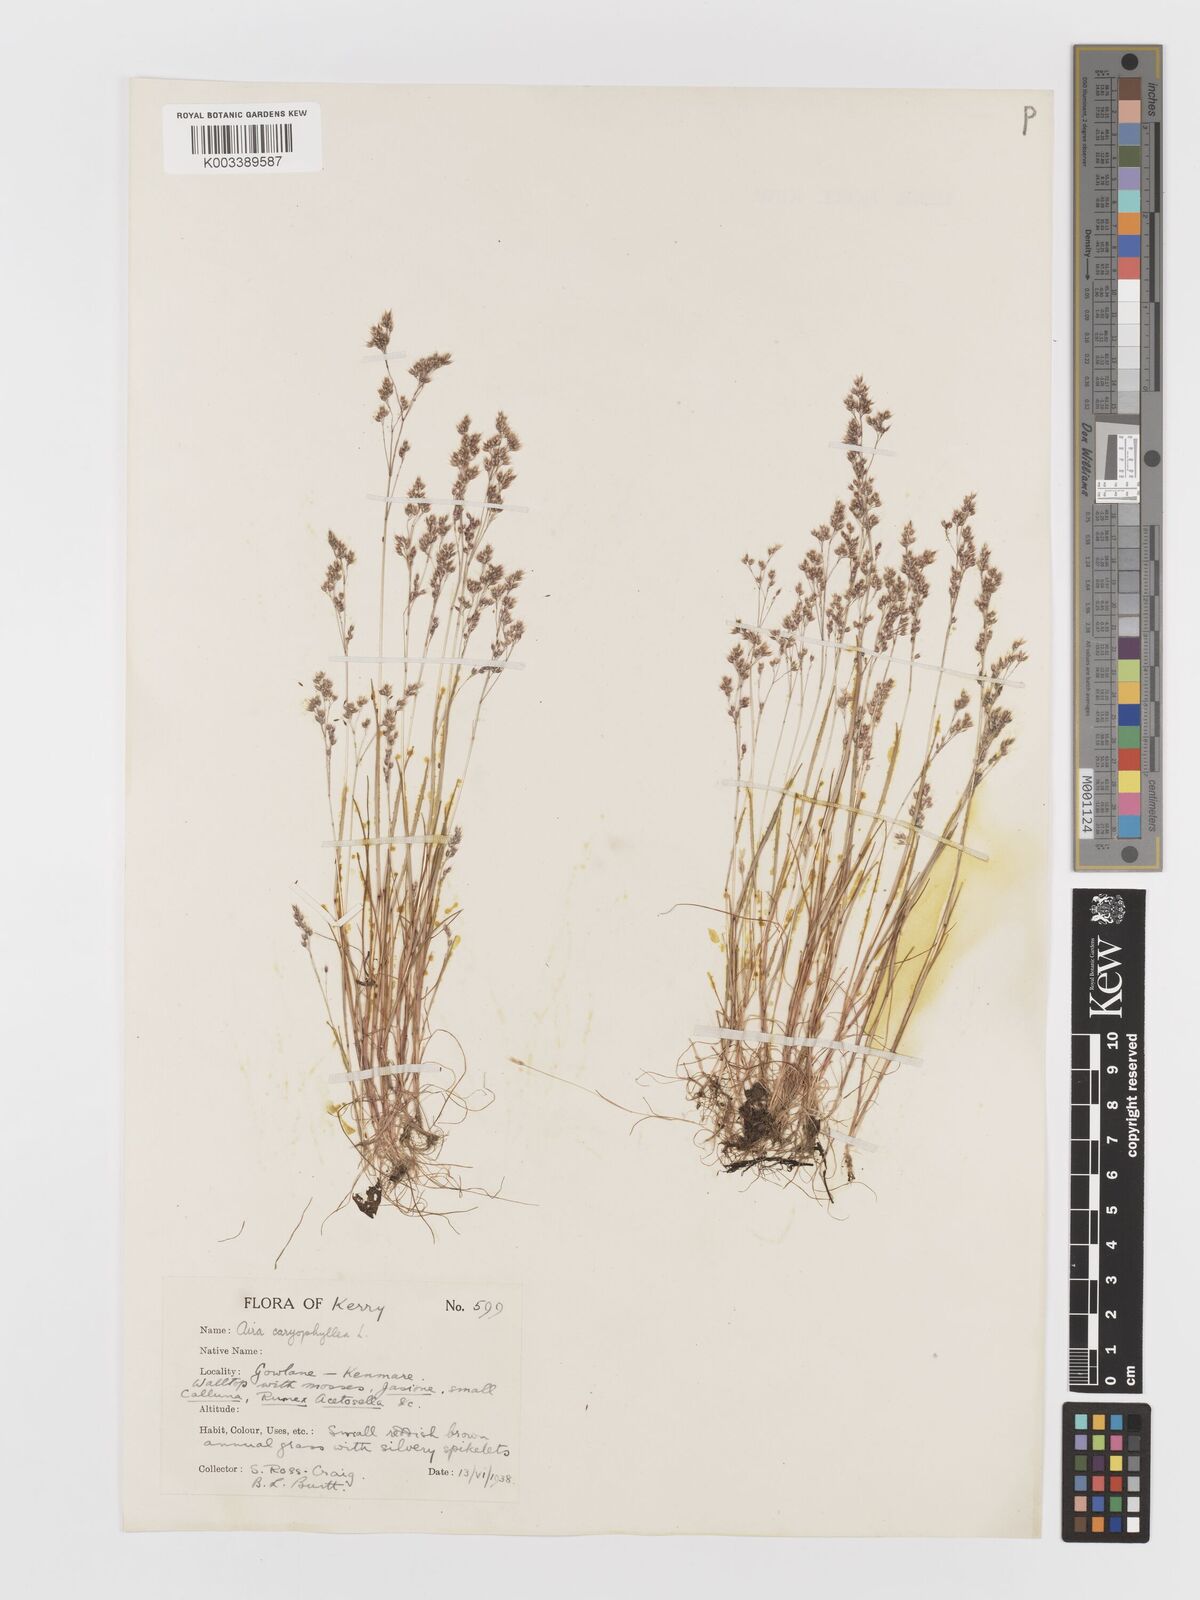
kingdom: Plantae
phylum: Tracheophyta
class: Liliopsida
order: Poales
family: Poaceae
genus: Aira
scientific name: Aira caryophyllea
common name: Silver hairgrass
